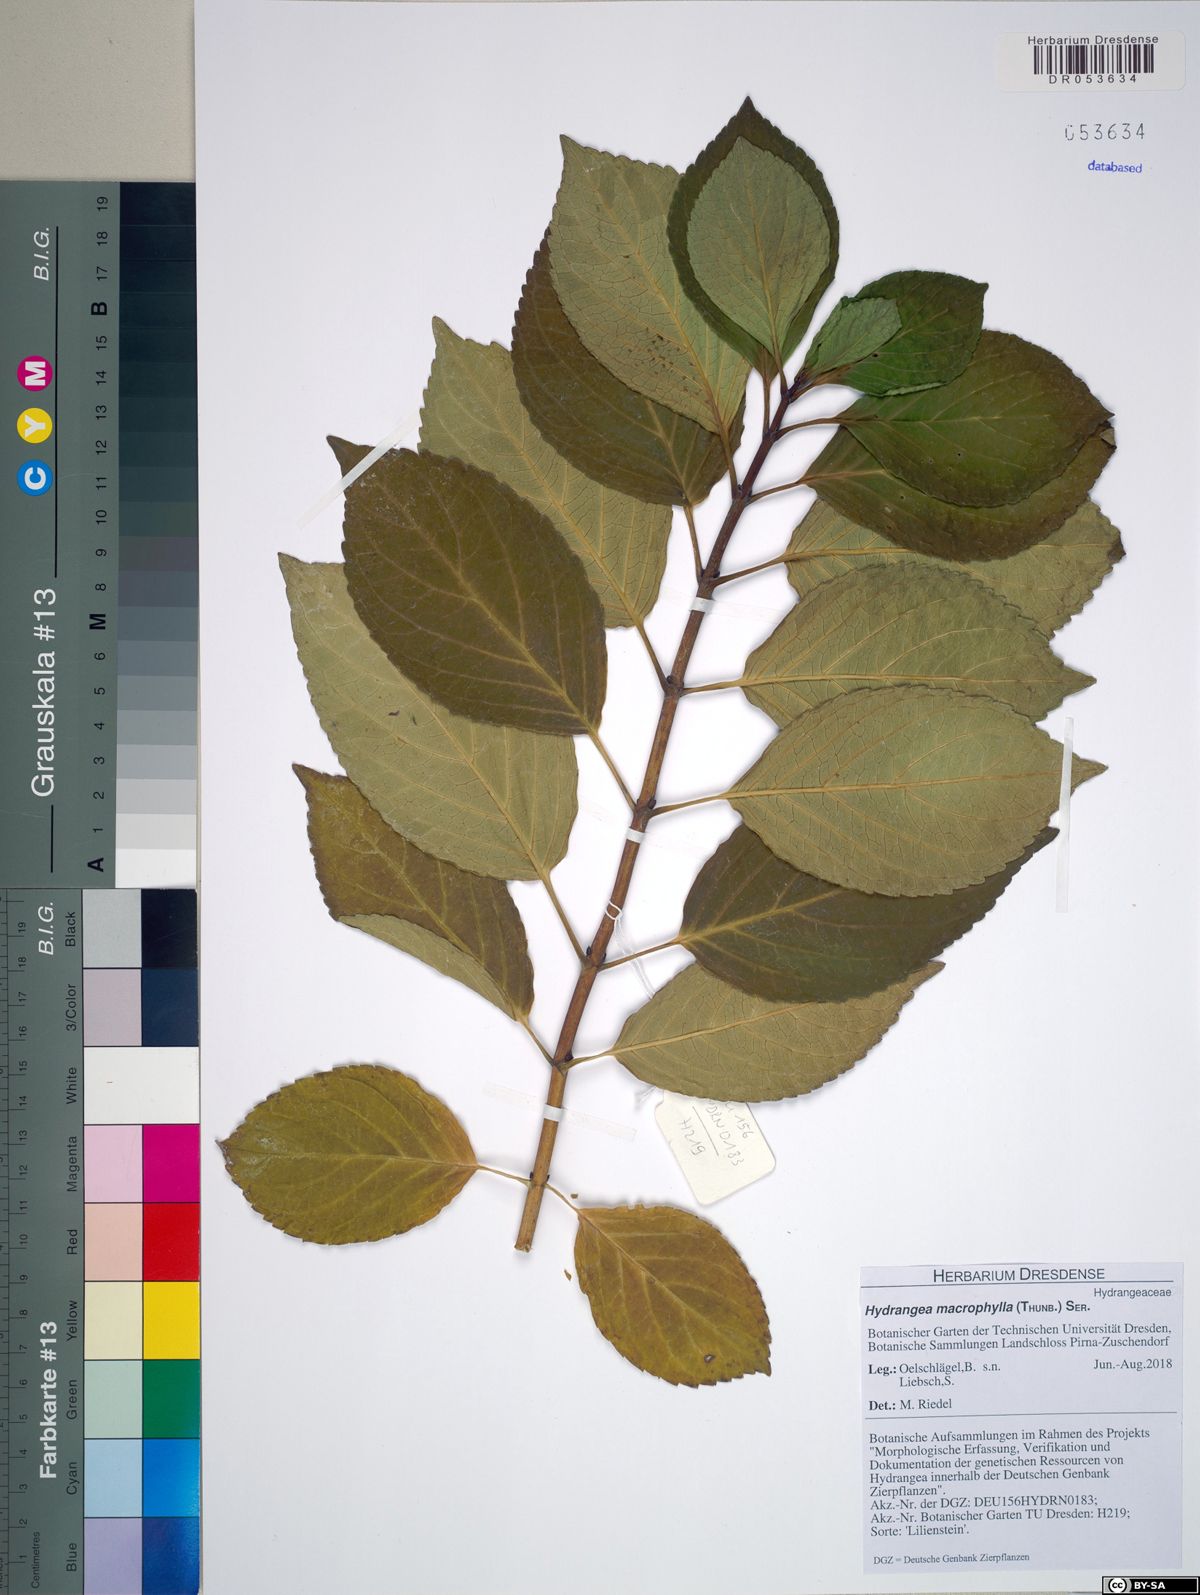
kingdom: Plantae
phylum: Tracheophyta
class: Magnoliopsida
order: Cornales
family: Hydrangeaceae
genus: Hydrangea
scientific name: Hydrangea macrophylla
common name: Hydrangea
